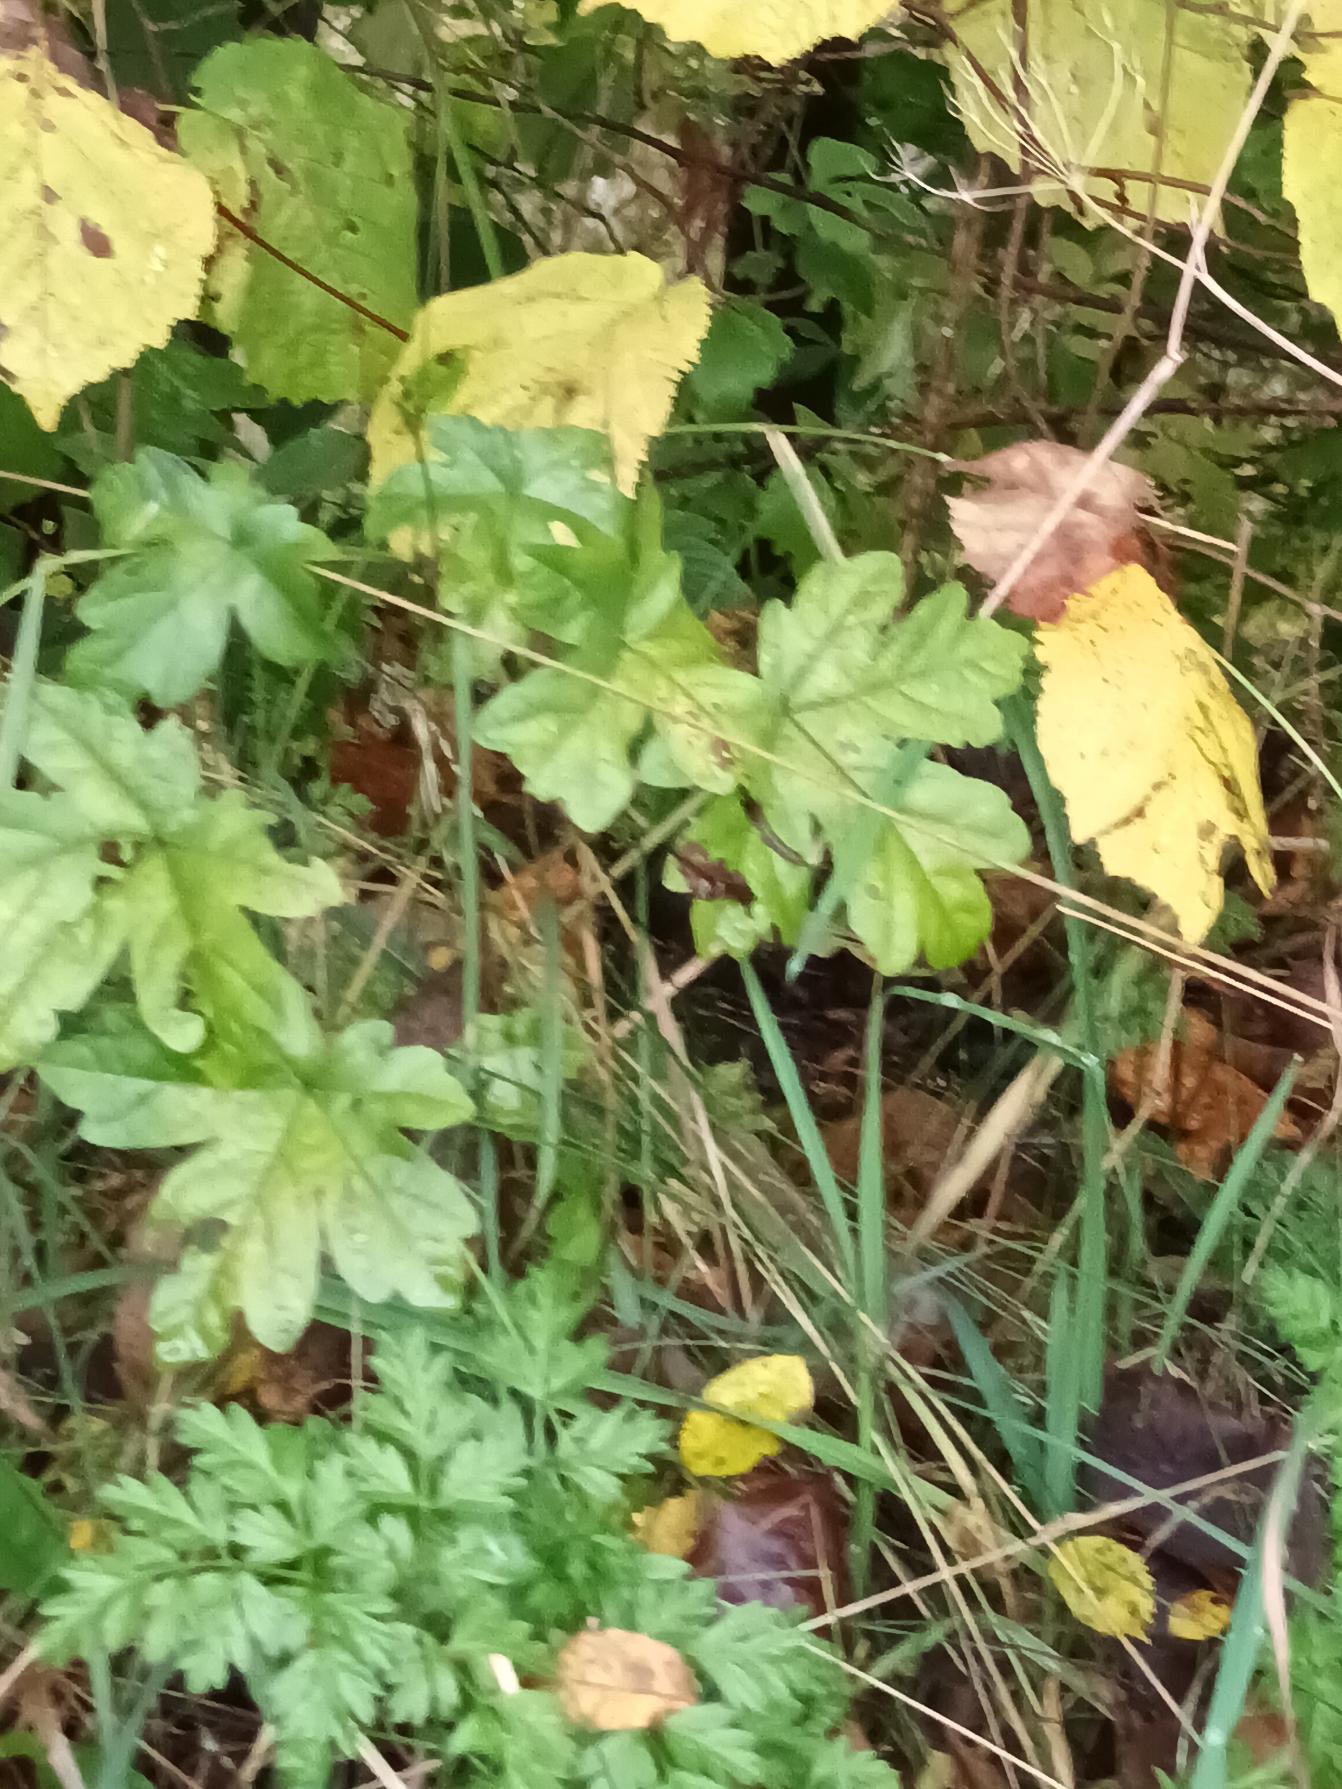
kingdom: Plantae
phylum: Tracheophyta
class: Magnoliopsida
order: Sapindales
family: Sapindaceae
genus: Acer
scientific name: Acer campestre
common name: Navr
